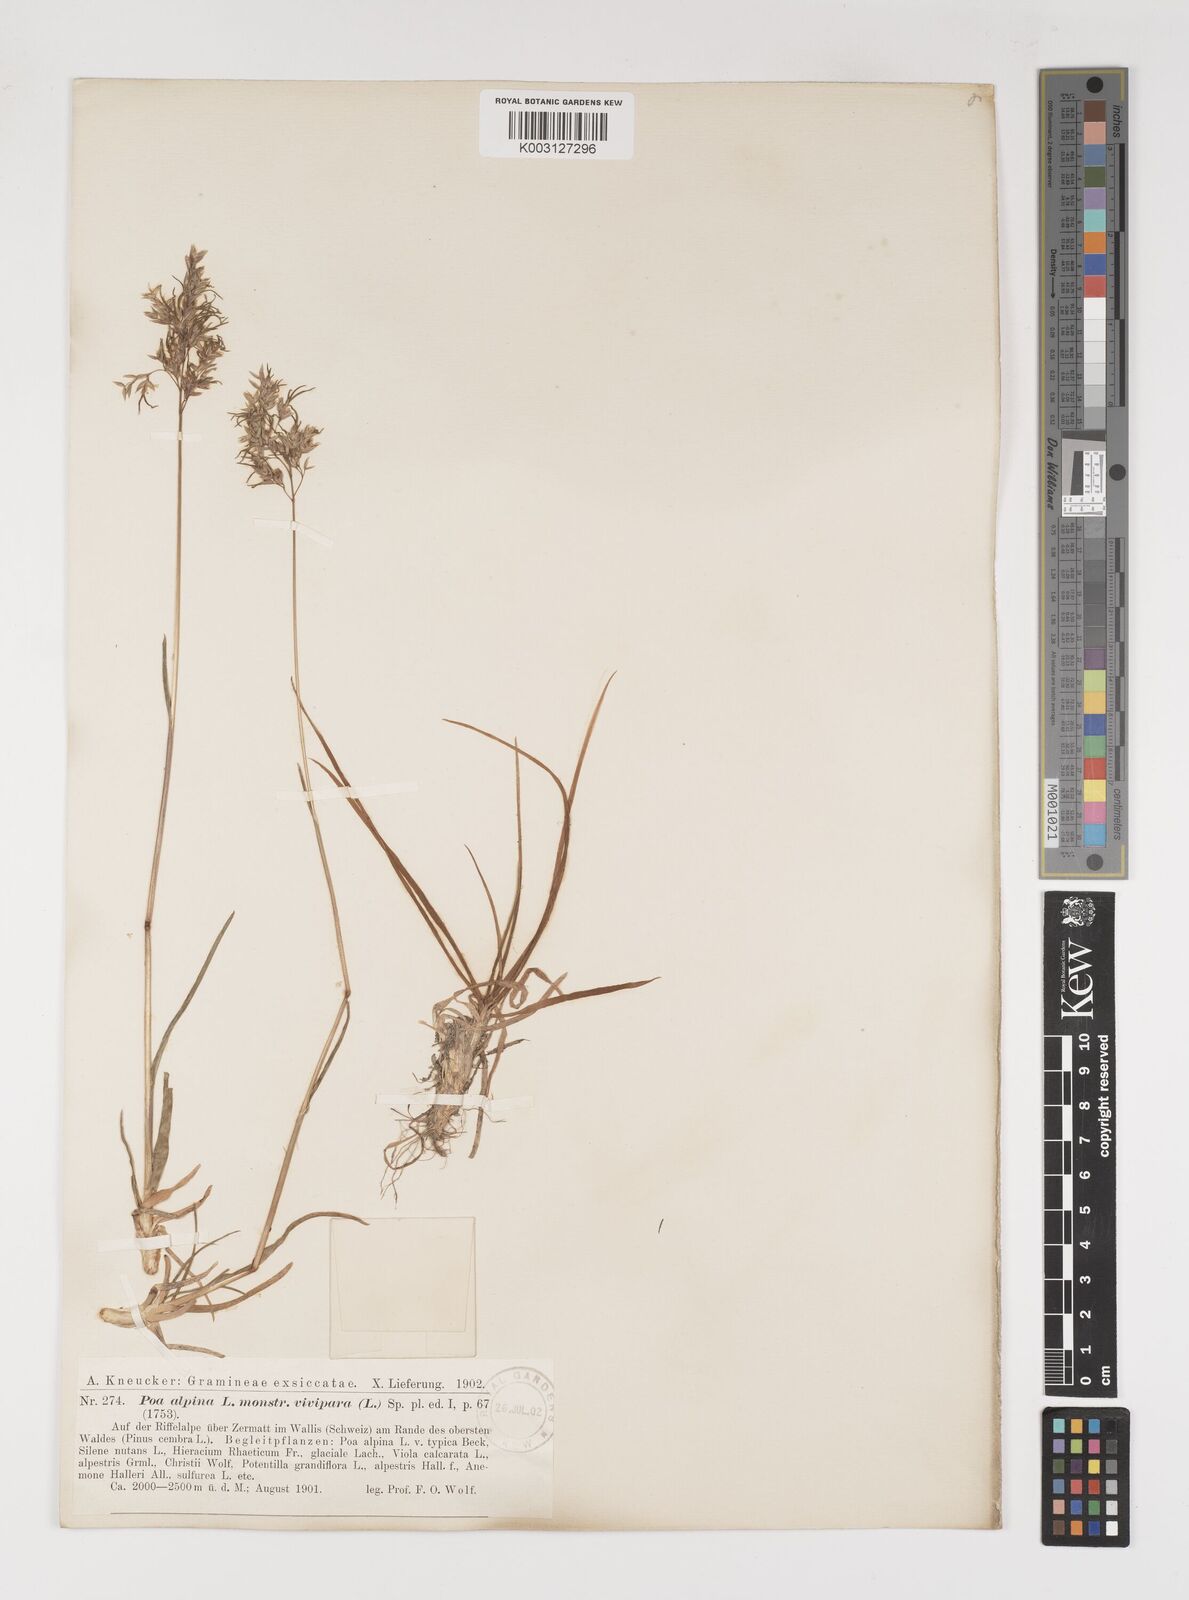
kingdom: Plantae
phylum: Tracheophyta
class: Liliopsida
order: Poales
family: Poaceae
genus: Poa
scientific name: Poa alpina
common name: Alpine bluegrass
